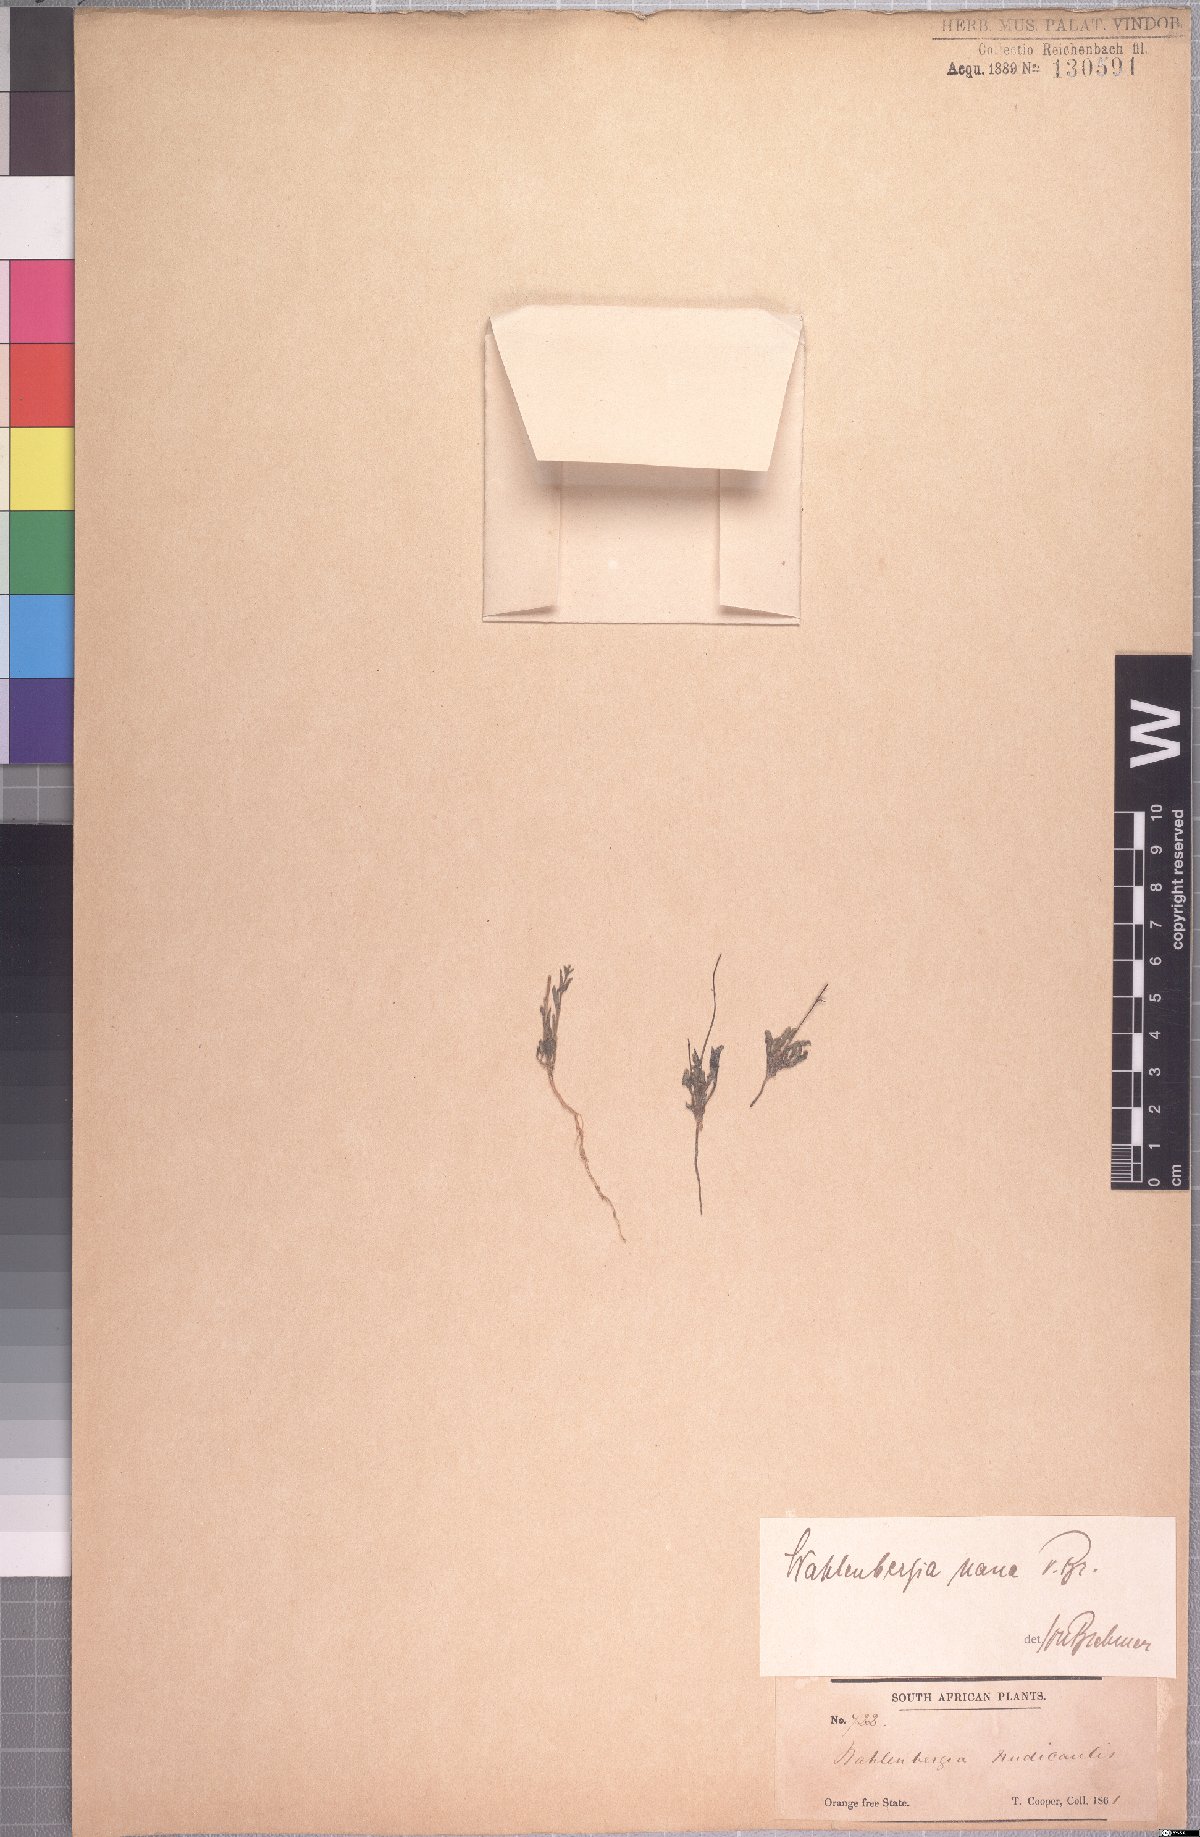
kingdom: Plantae
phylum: Tracheophyta
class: Magnoliopsida
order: Asterales
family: Campanulaceae
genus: Wahlenbergia
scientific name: Wahlenbergia nana
